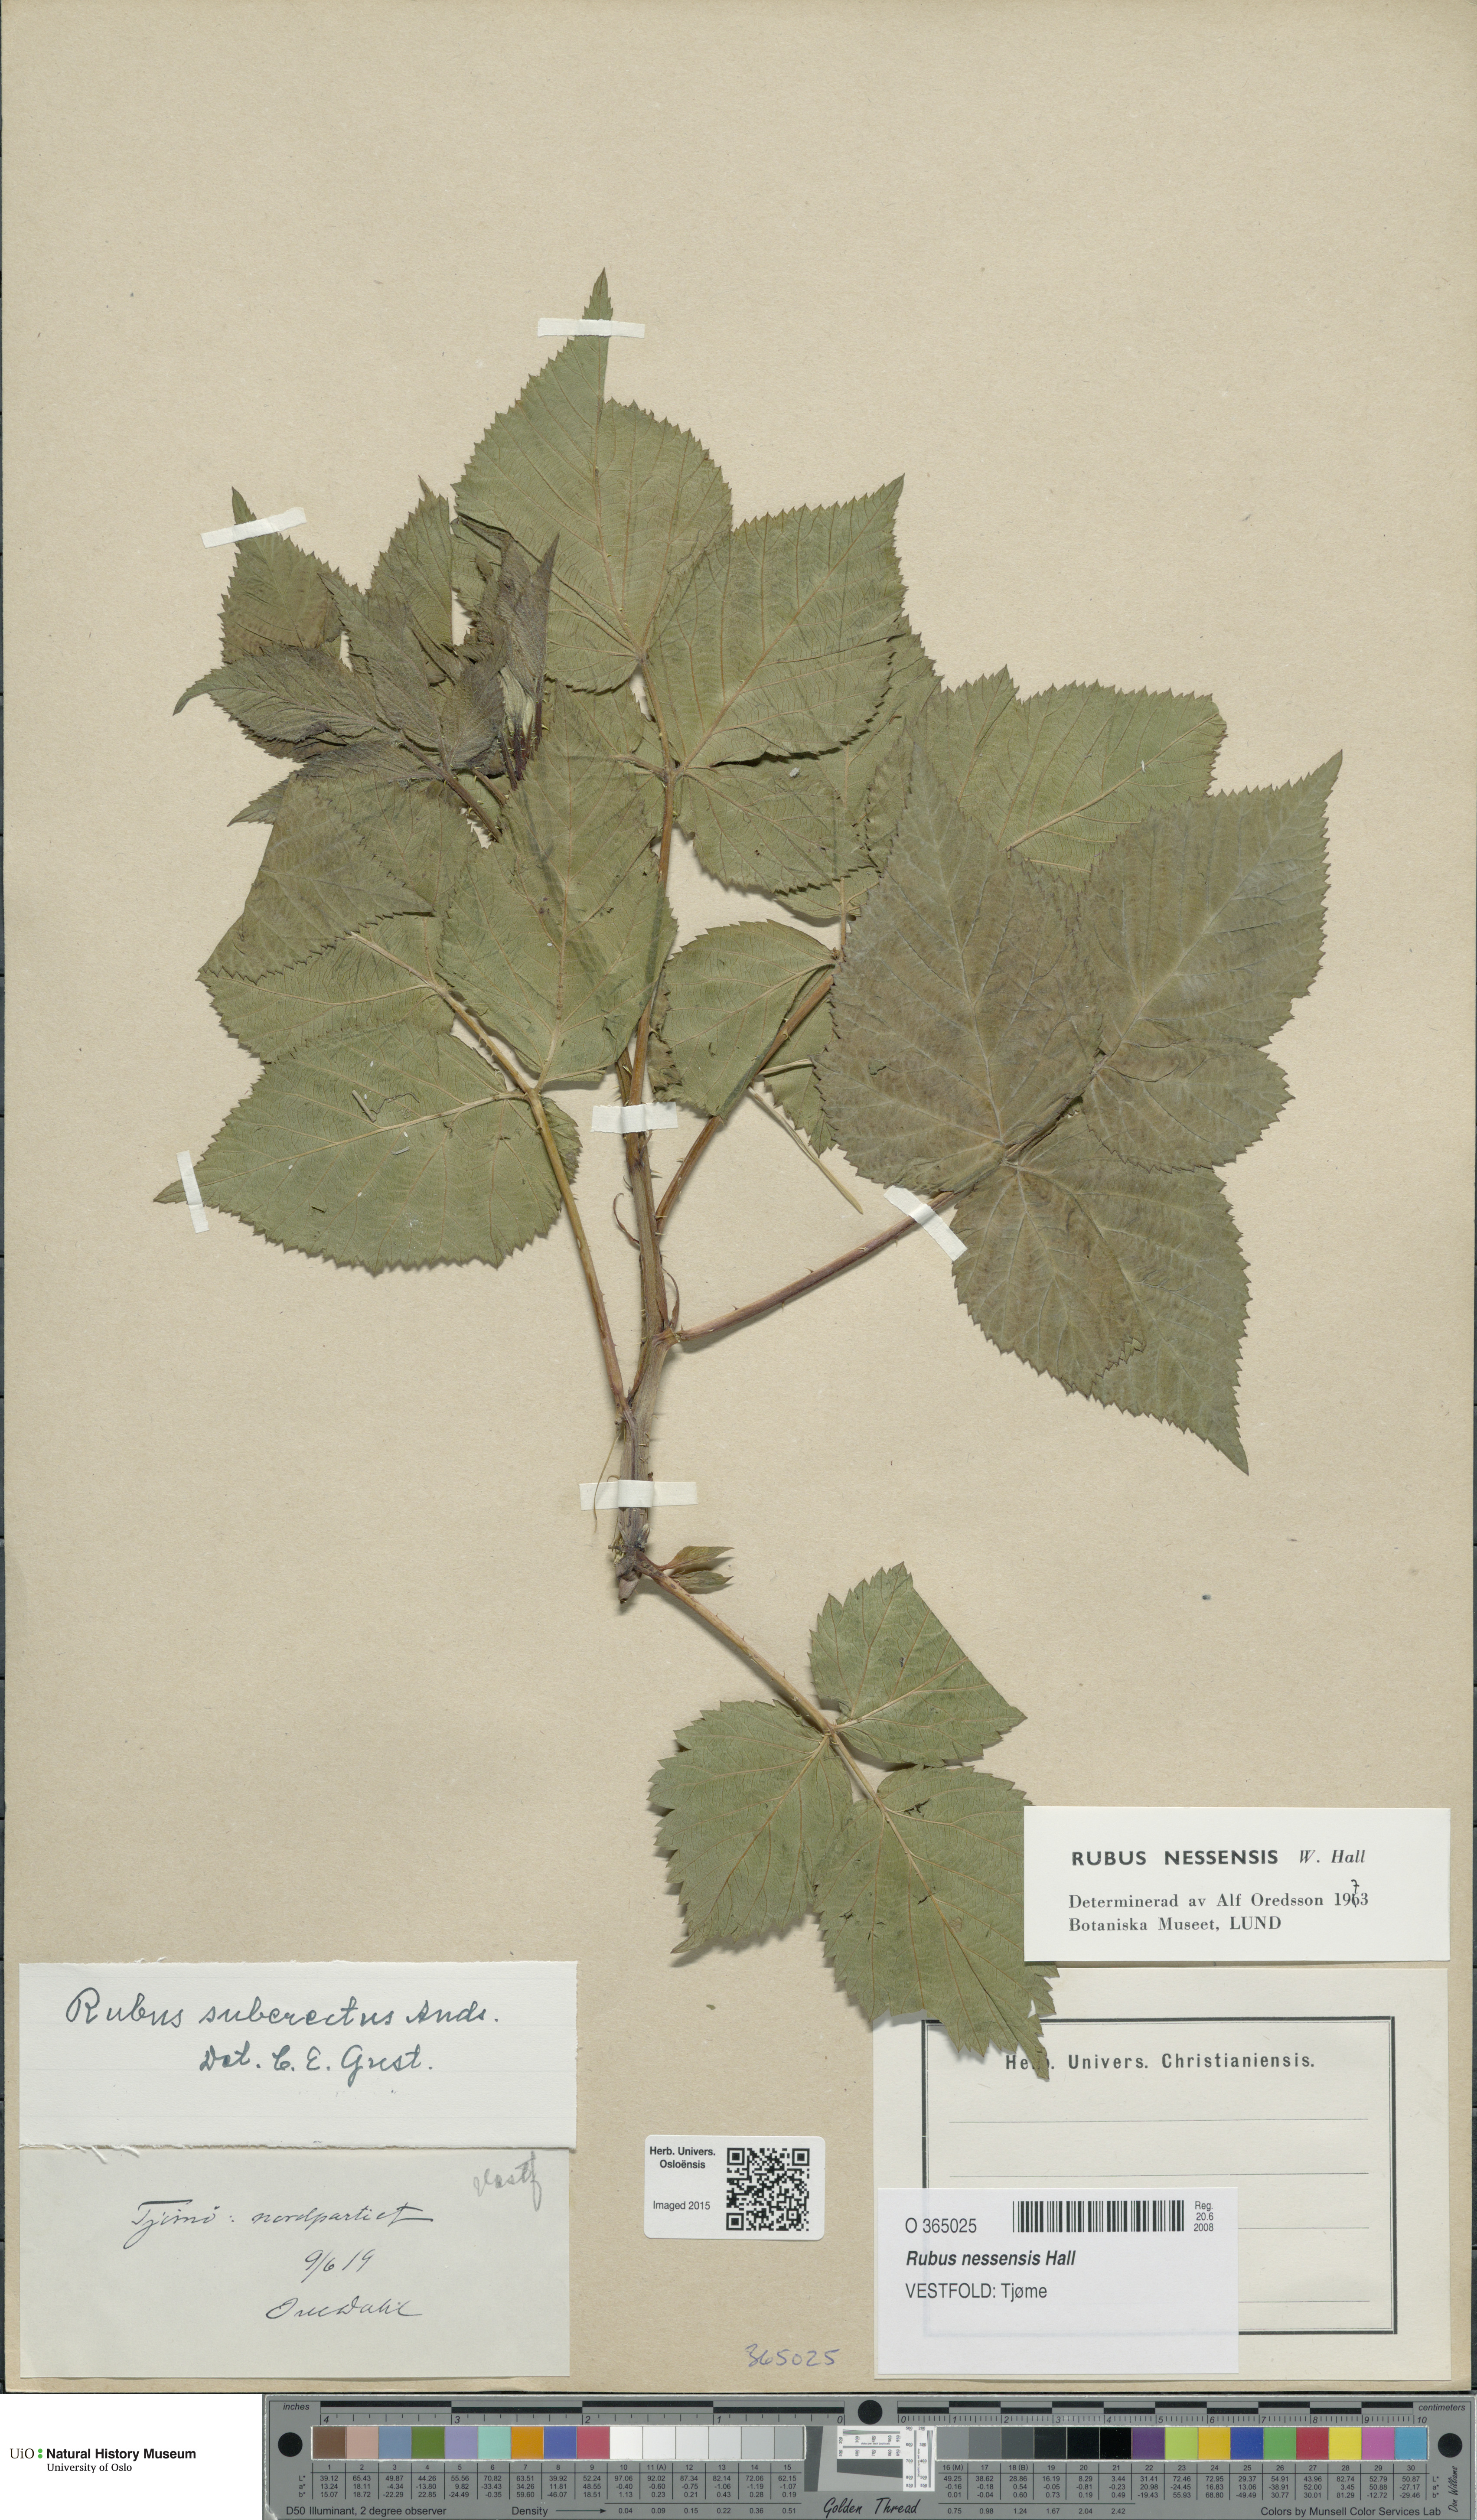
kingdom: Plantae
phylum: Tracheophyta
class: Magnoliopsida
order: Rosales
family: Rosaceae
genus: Rubus
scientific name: Rubus polonicus
